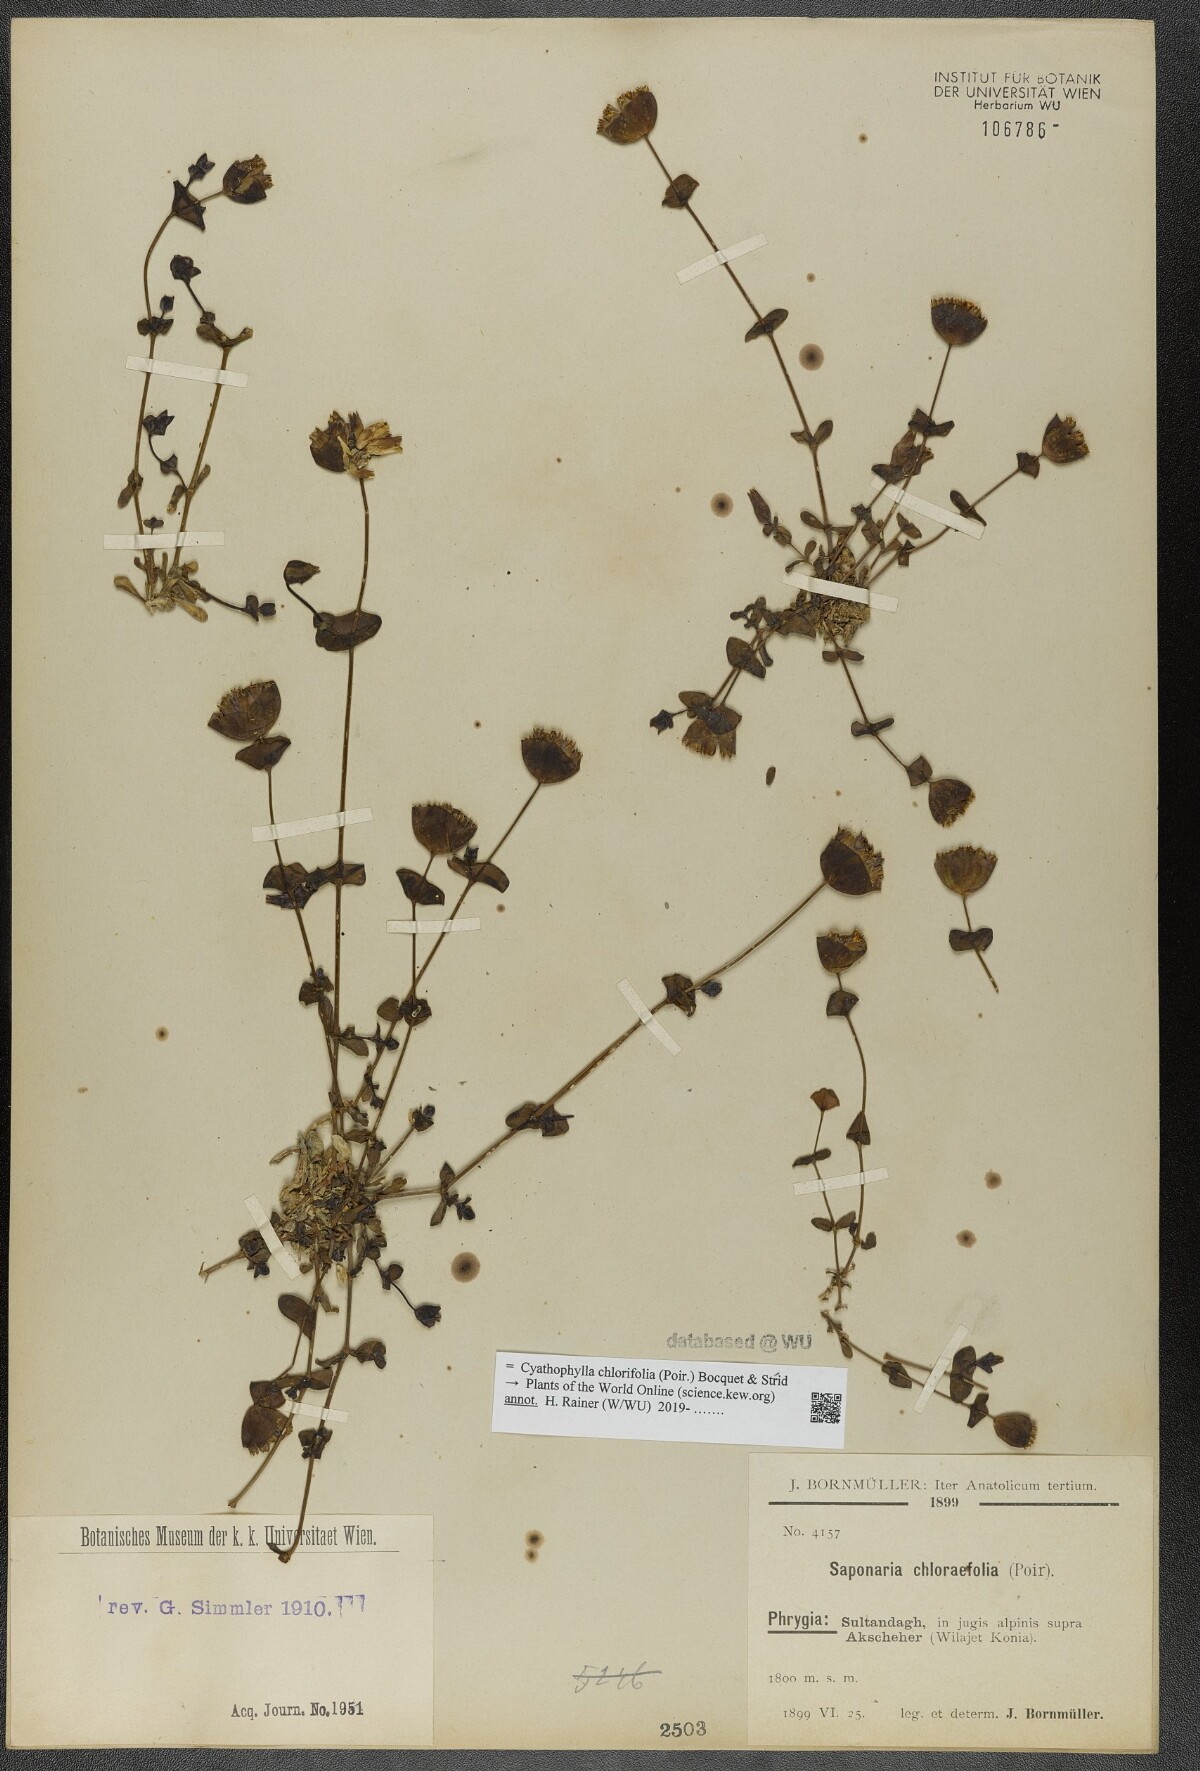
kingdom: Plantae
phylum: Tracheophyta
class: Magnoliopsida
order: Caryophyllales
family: Caryophyllaceae
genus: Cyathophylla
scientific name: Cyathophylla chlorifolia
